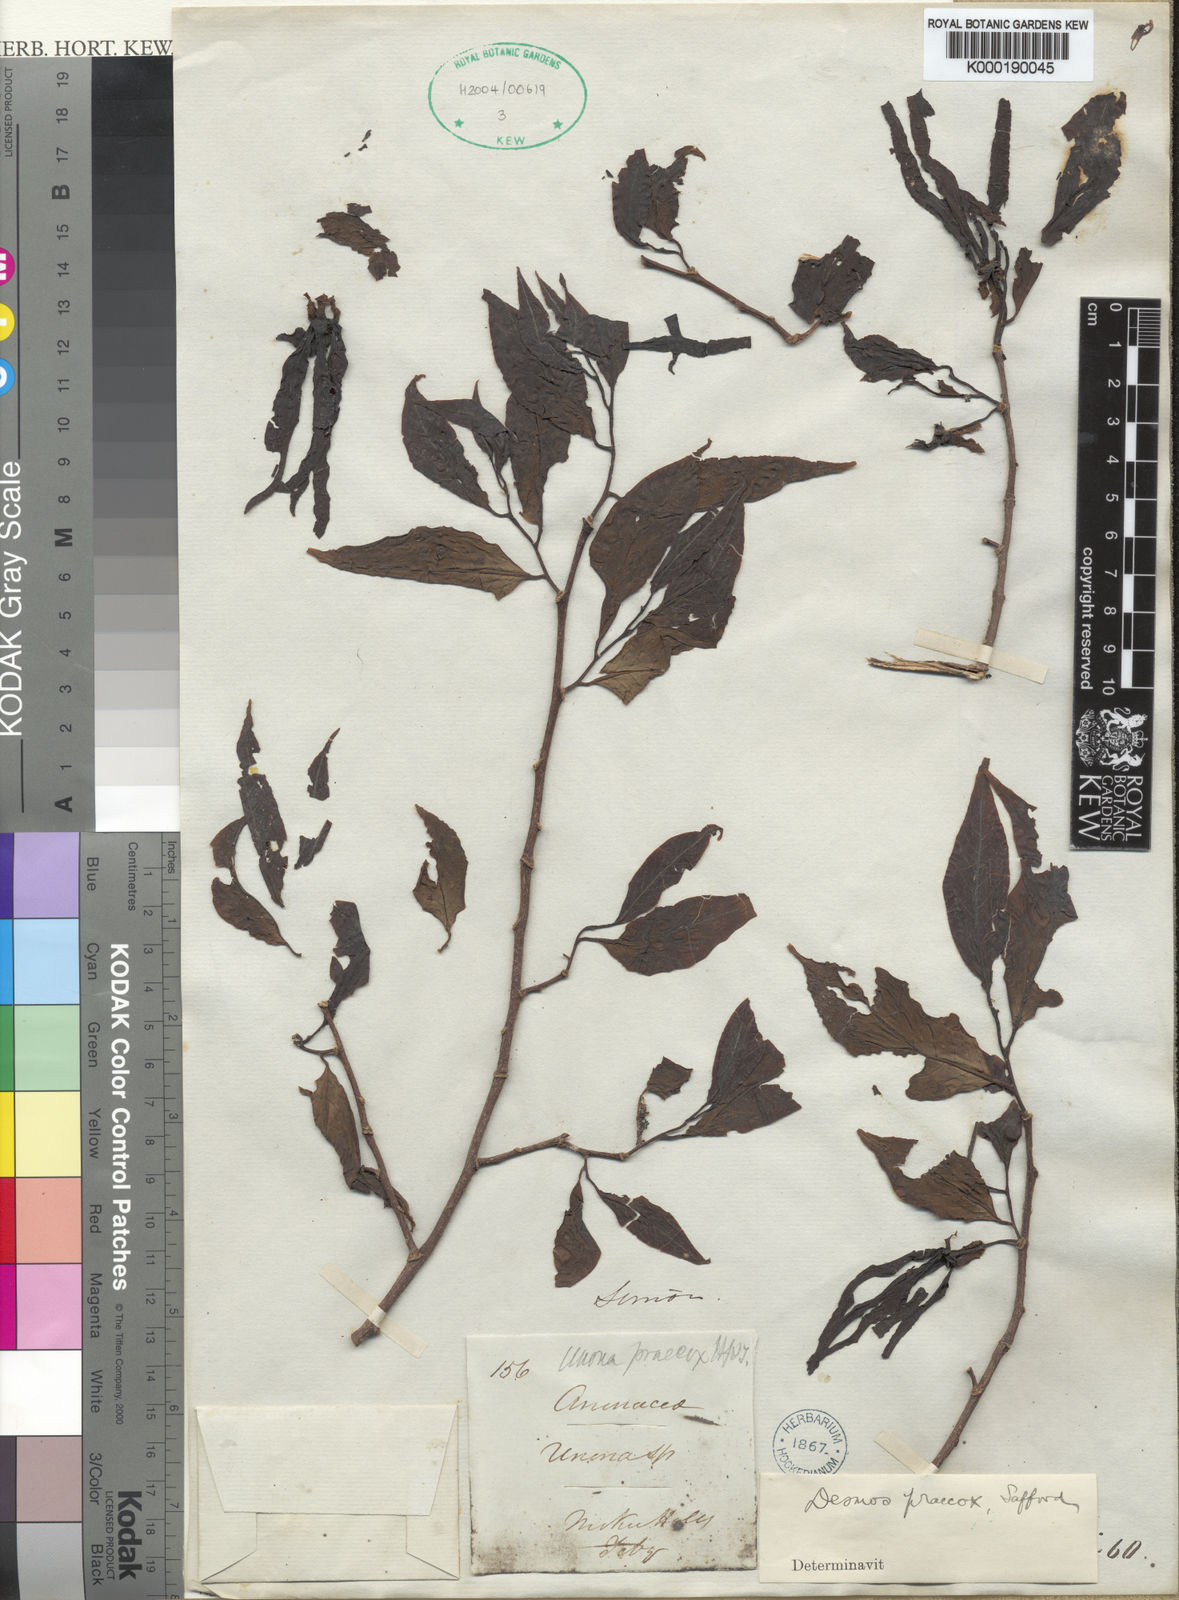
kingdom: Plantae
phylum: Tracheophyta
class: Magnoliopsida
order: Magnoliales
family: Annonaceae
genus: Desmos
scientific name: Desmos praecox
